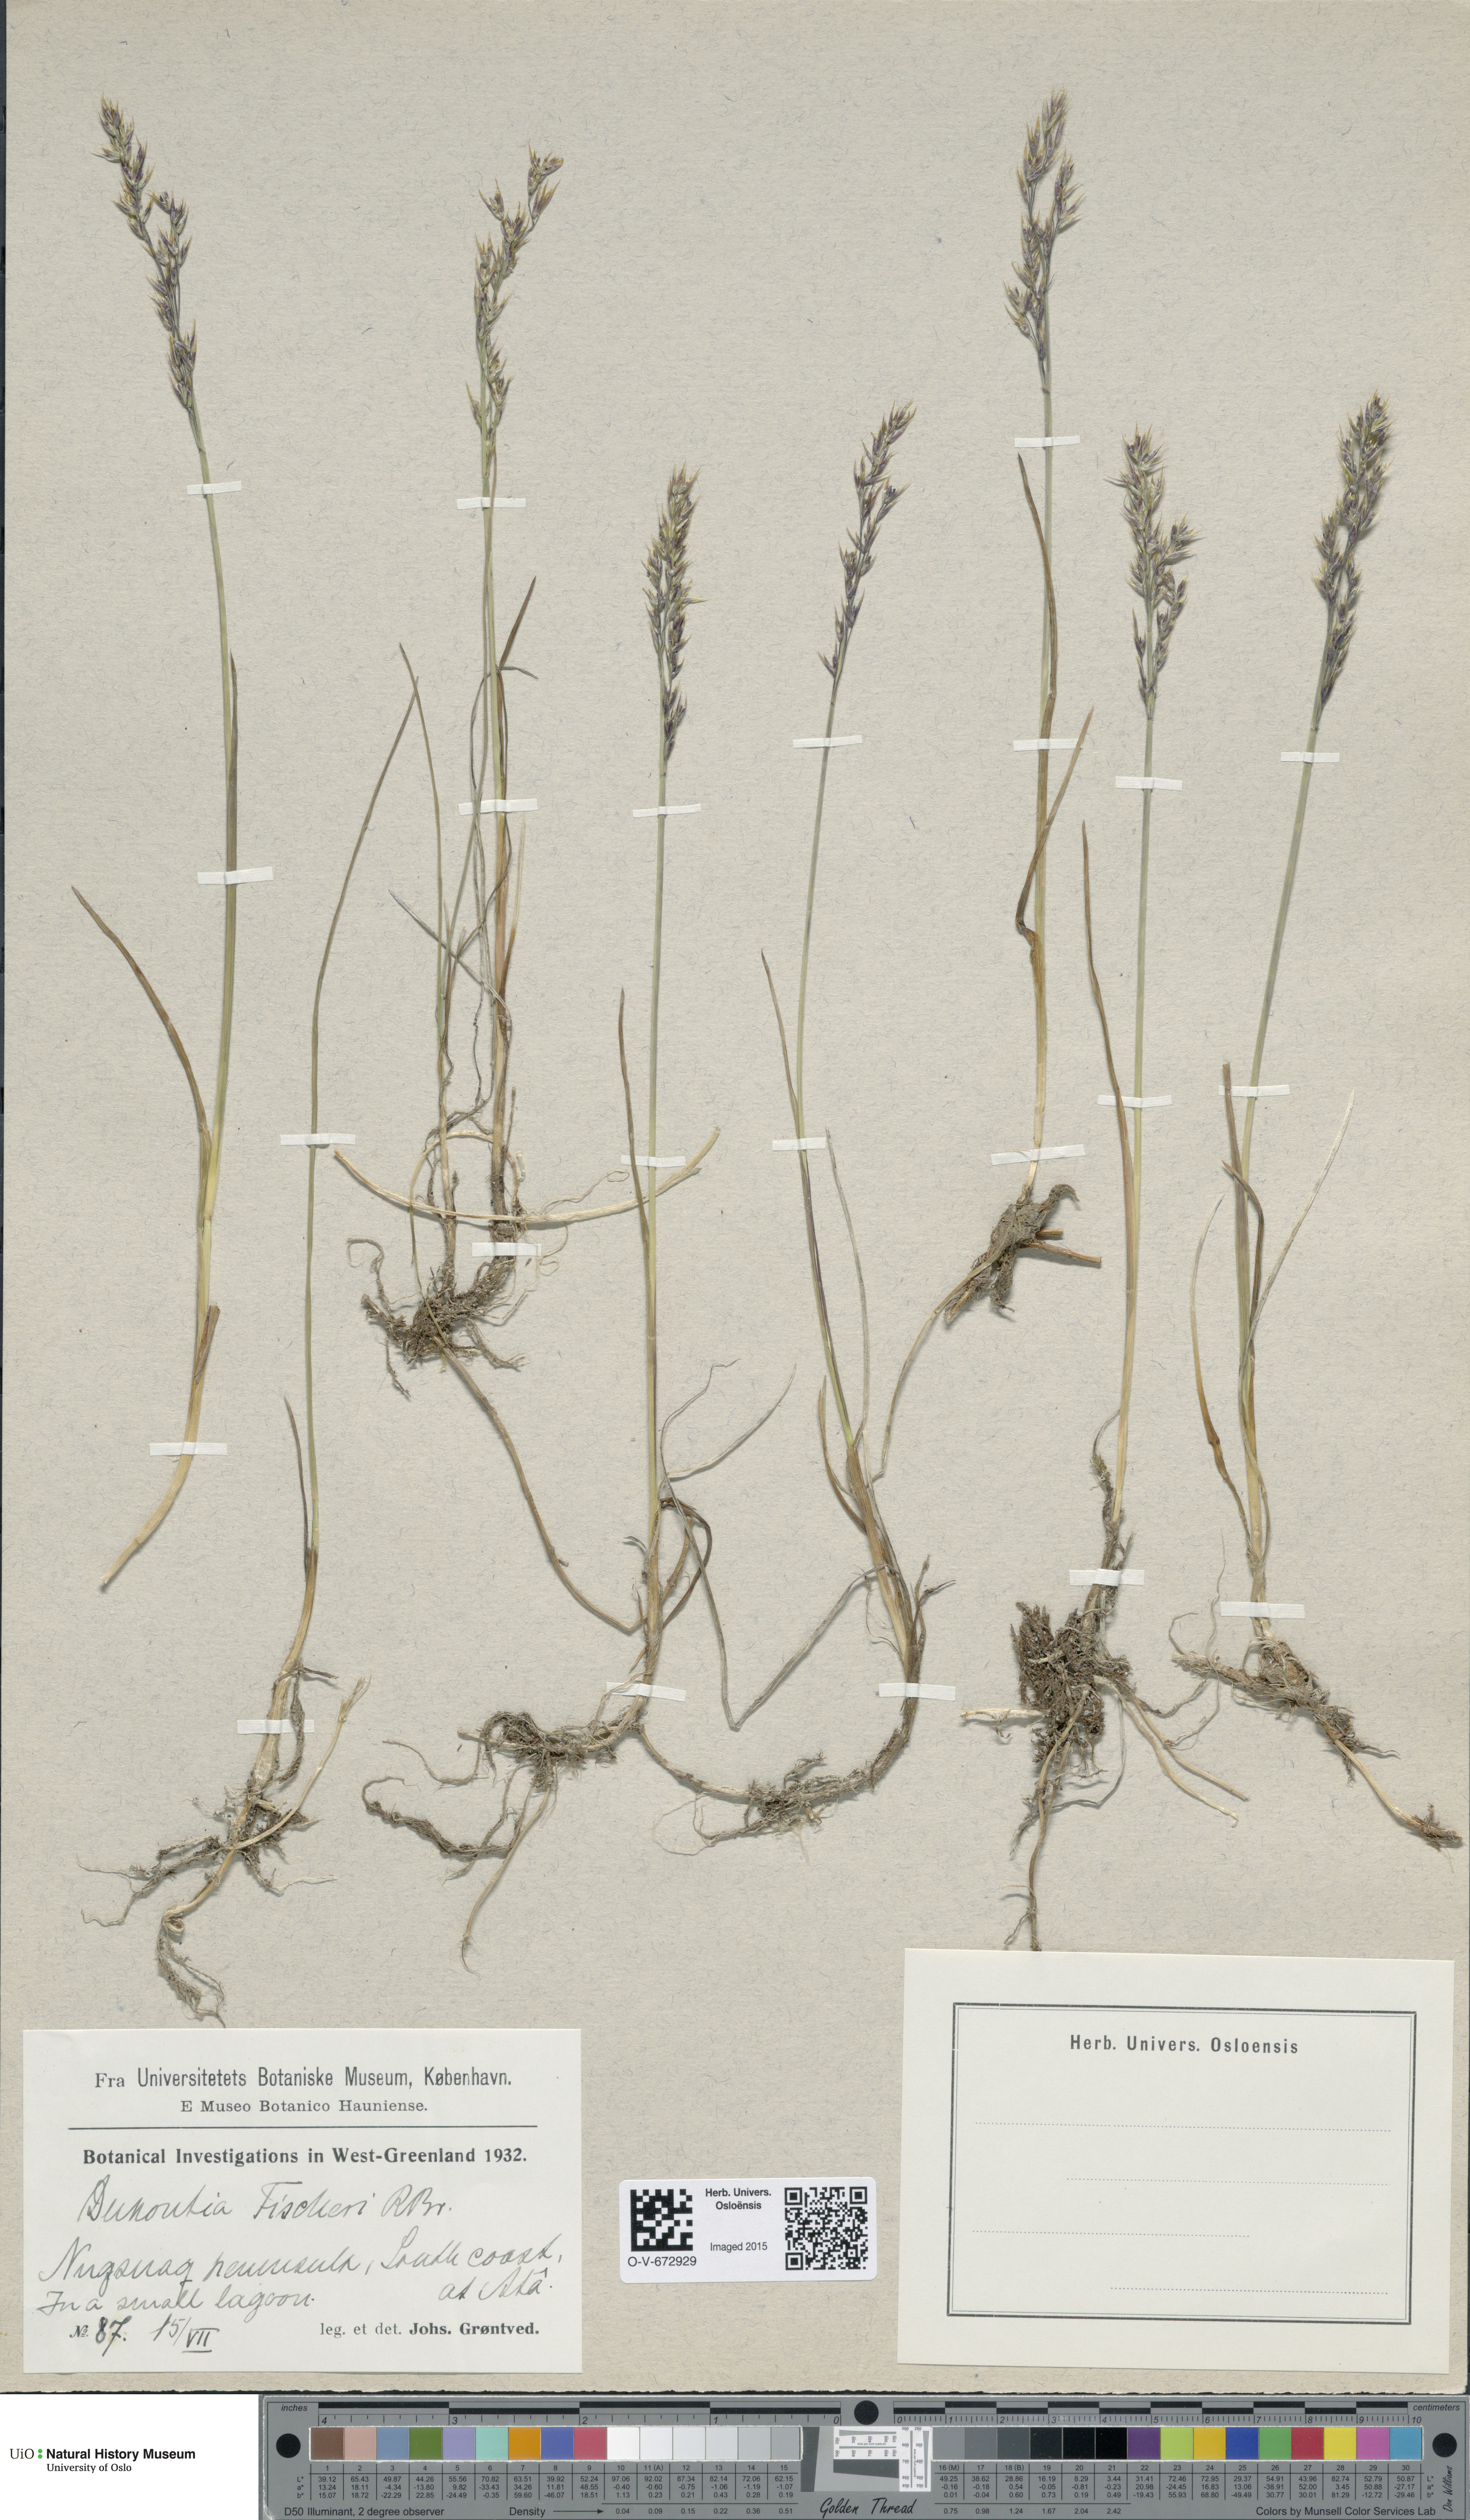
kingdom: Plantae
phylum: Tracheophyta
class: Liliopsida
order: Poales
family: Poaceae
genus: Dupontia
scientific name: Dupontia fisheri
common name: Tundra grass
